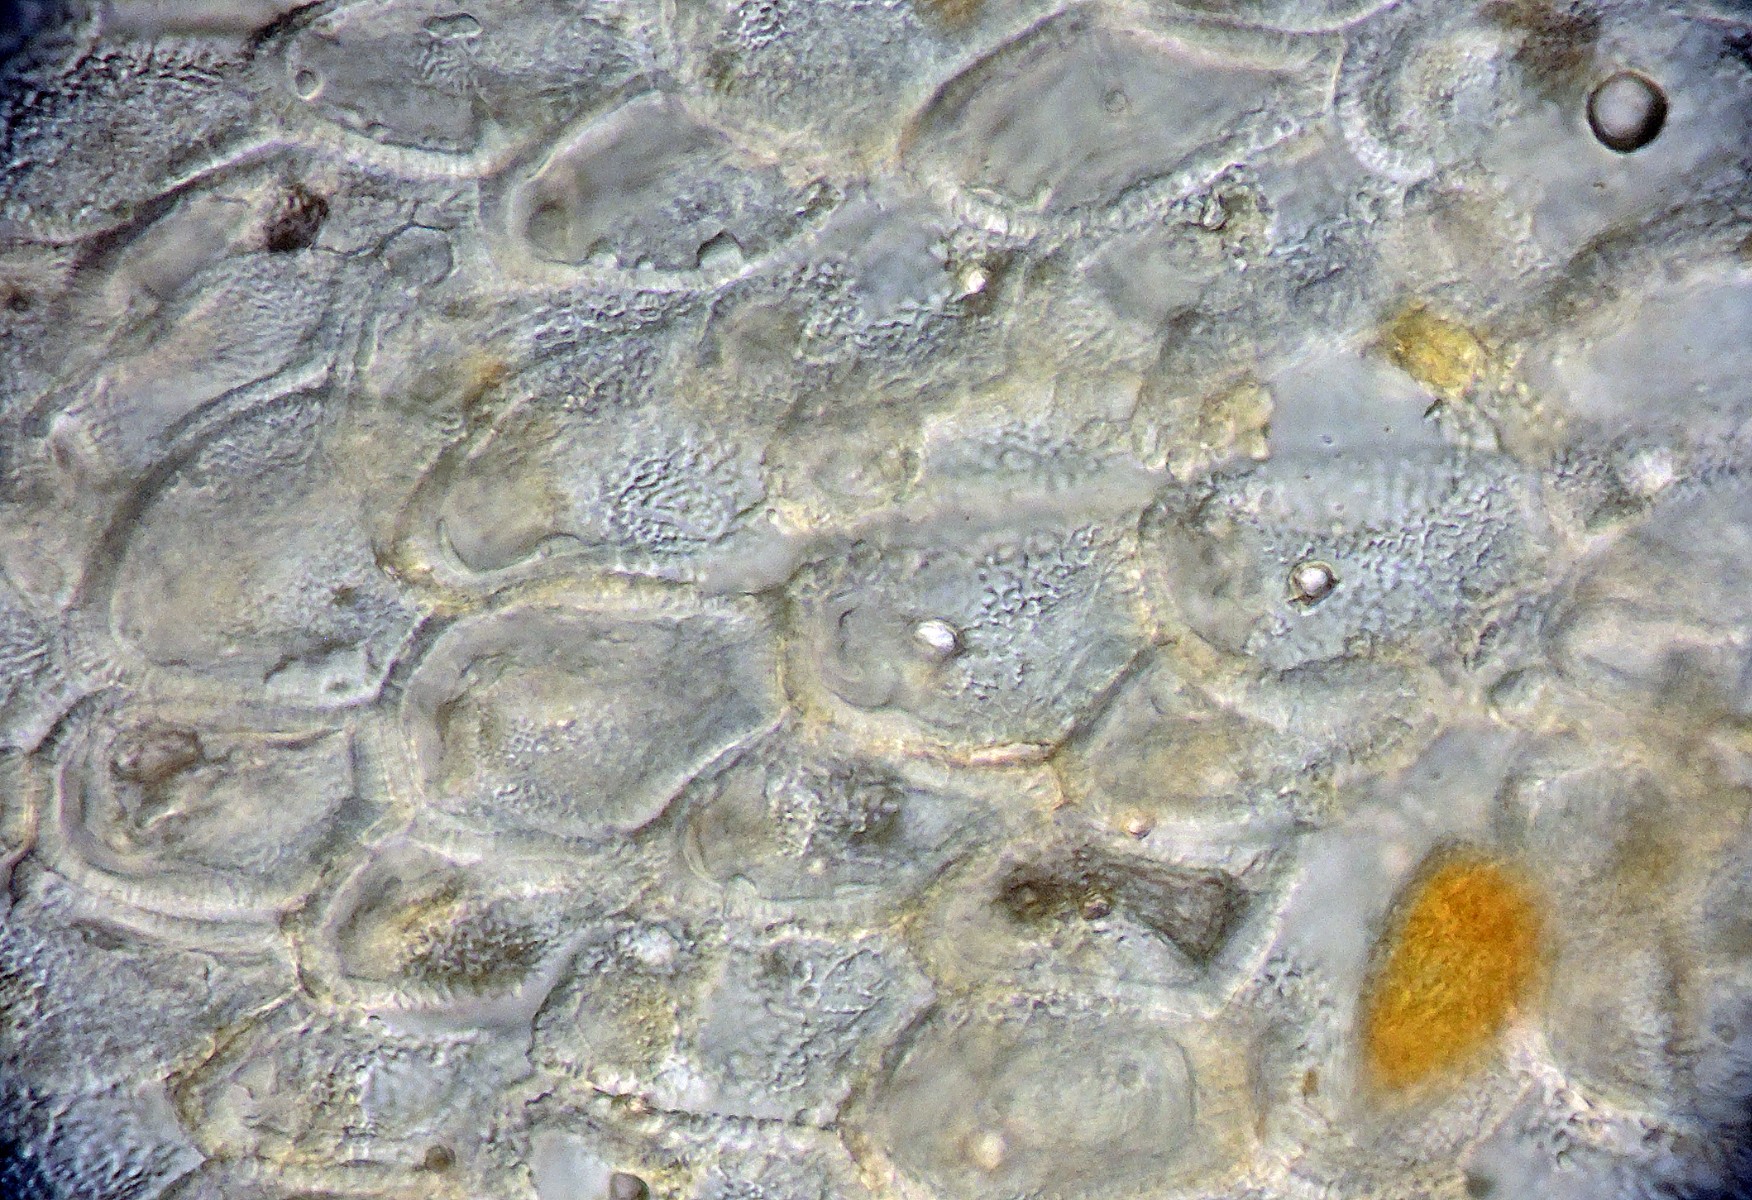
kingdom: Fungi
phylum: Basidiomycota
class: Pucciniomycetes
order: Pucciniales
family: Coleosporiaceae
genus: Coleosporium
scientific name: Coleosporium tussilaginis
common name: almindelig fyrrenålerust
